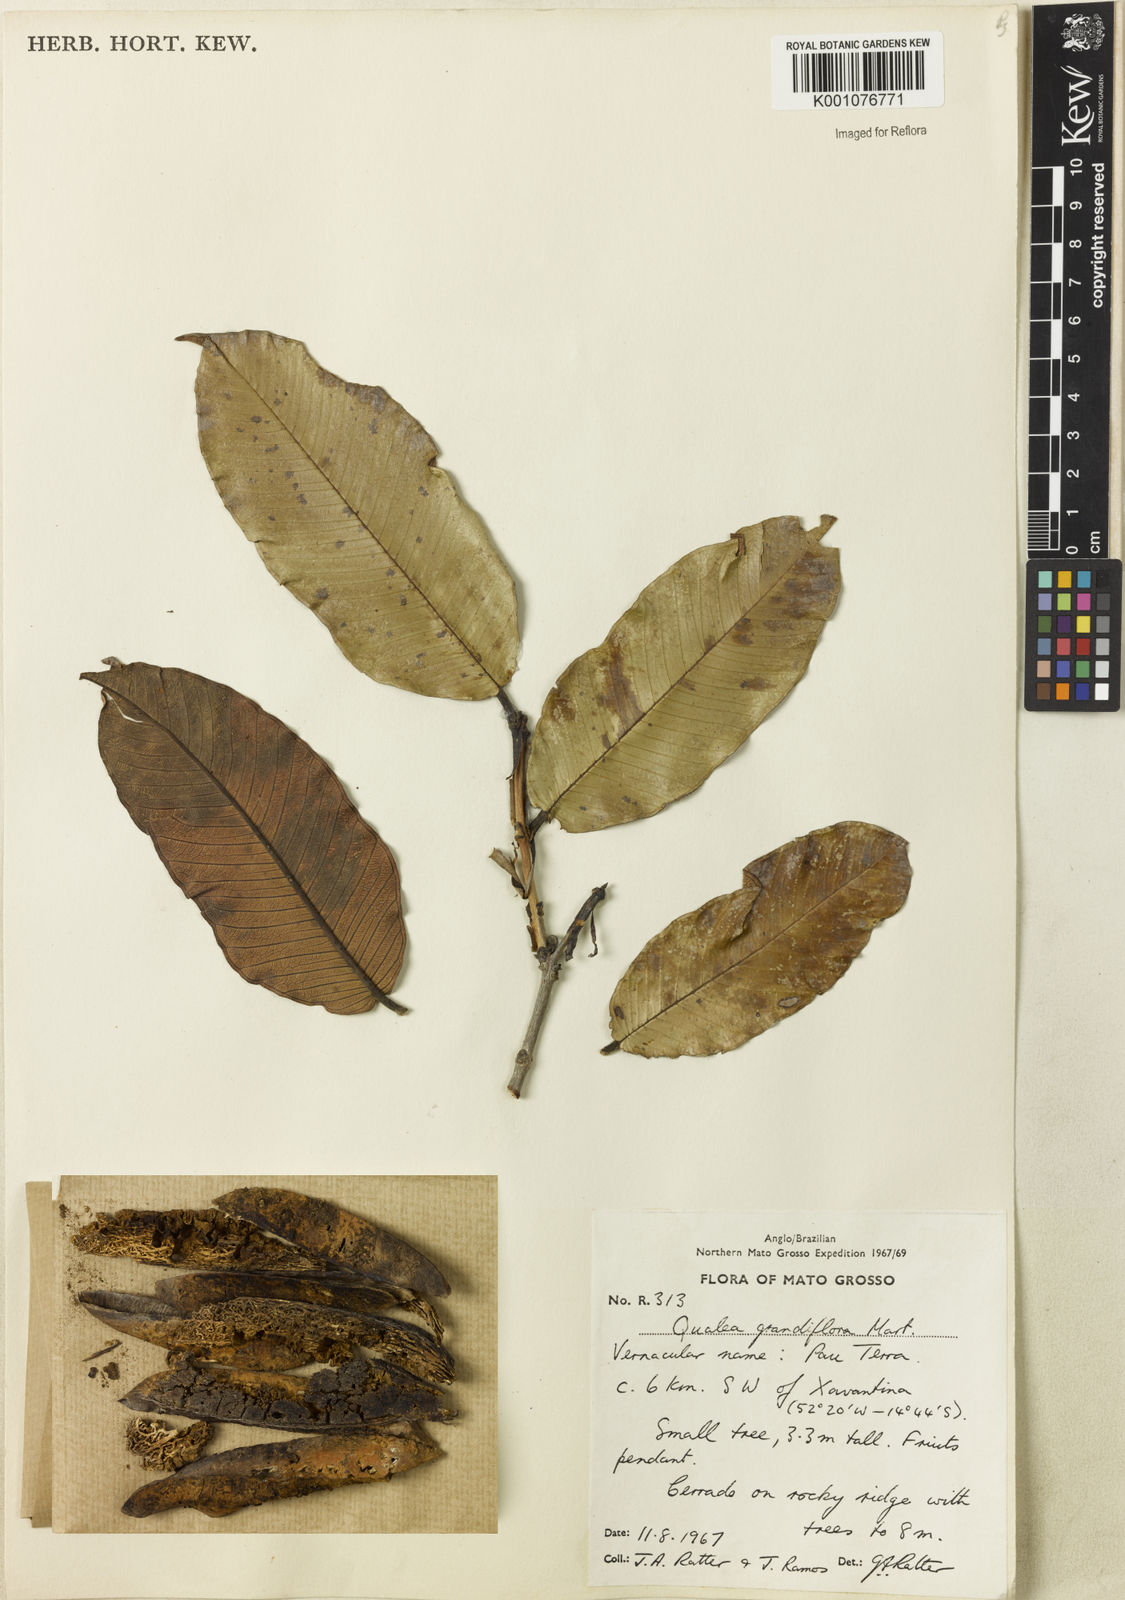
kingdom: Plantae
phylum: Tracheophyta
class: Magnoliopsida
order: Myrtales
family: Vochysiaceae
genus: Qualea
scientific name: Qualea grandiflora
